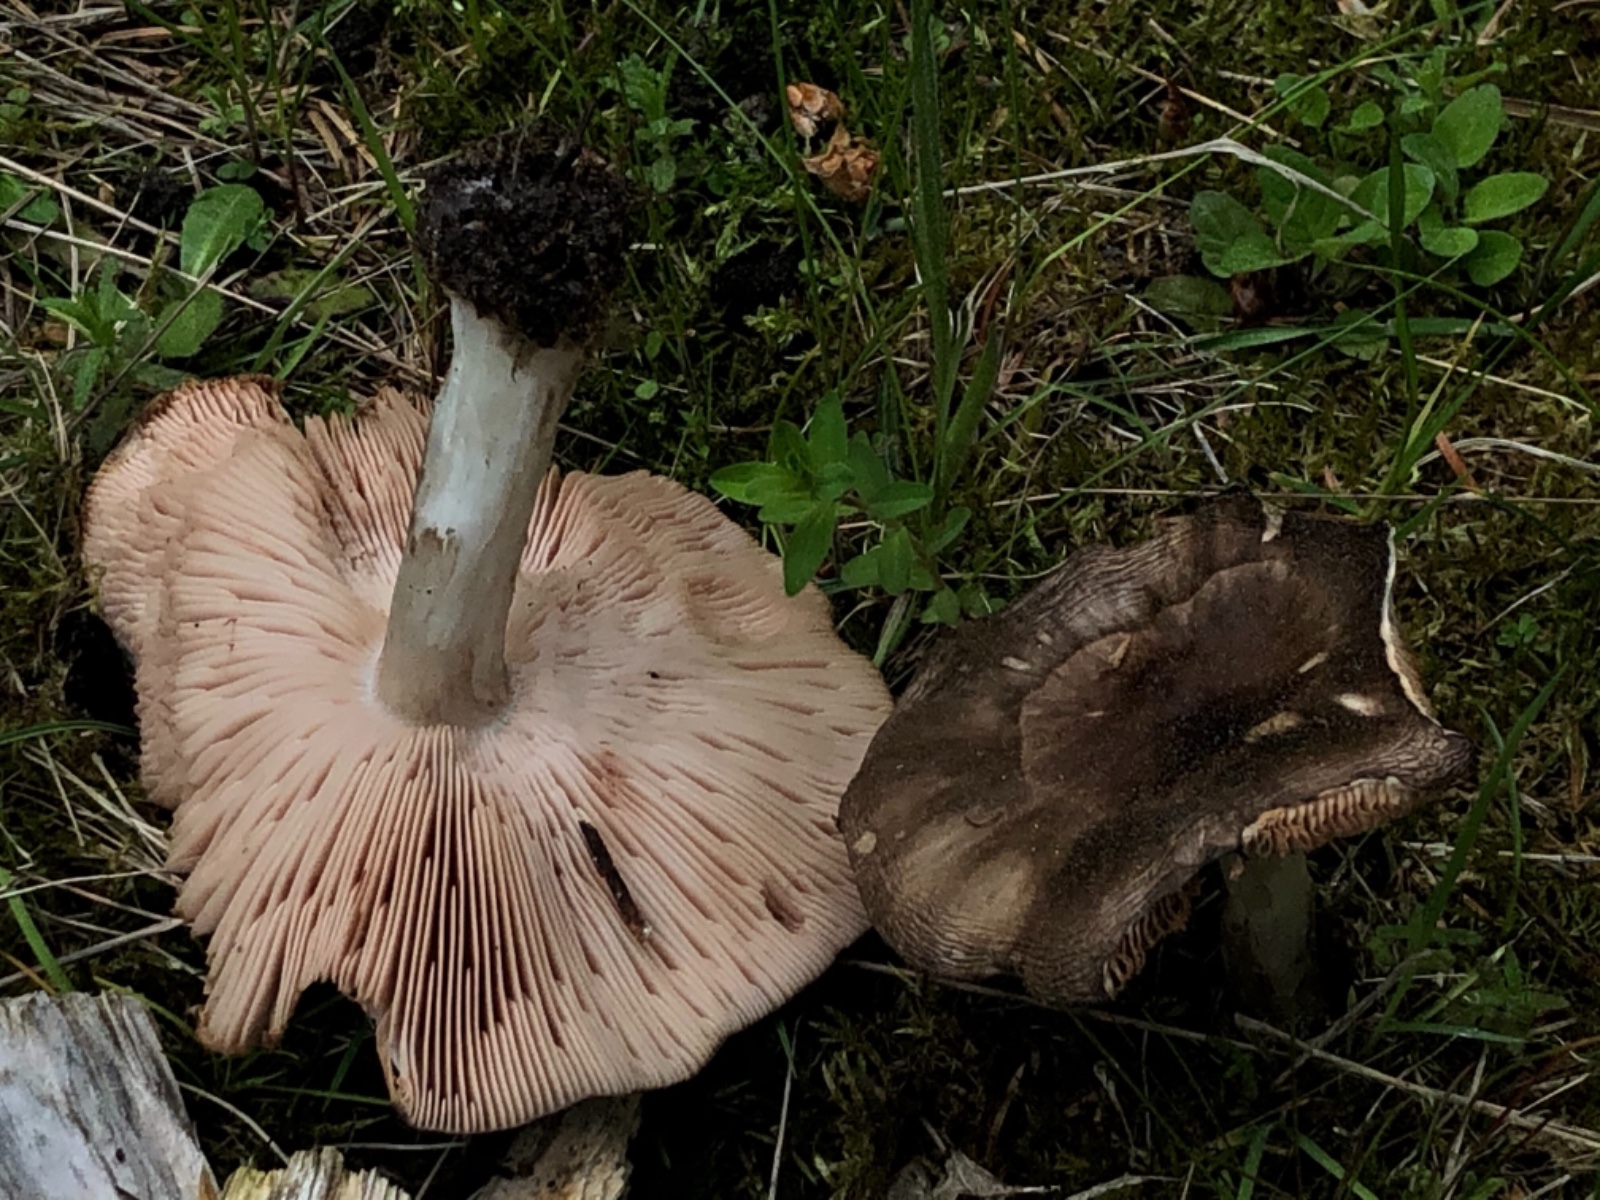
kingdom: Fungi
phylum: Basidiomycota
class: Agaricomycetes
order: Agaricales
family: Pluteaceae
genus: Pluteus
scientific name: Pluteus
